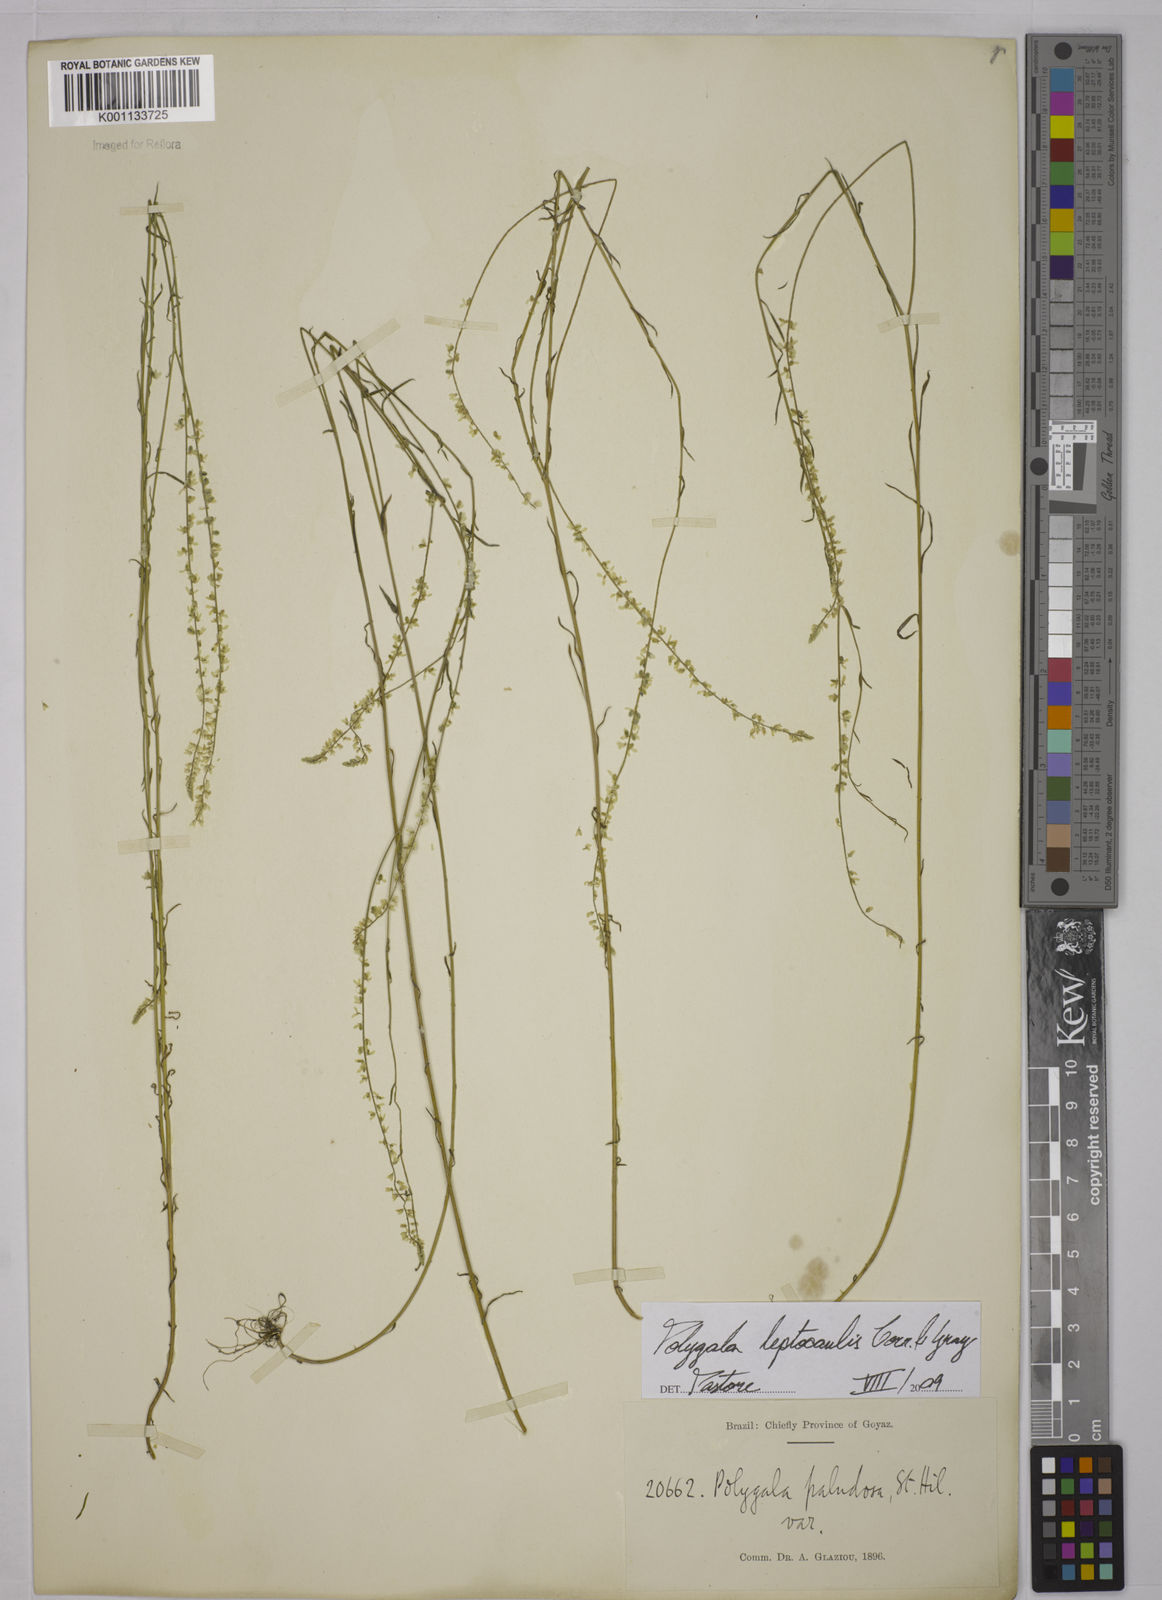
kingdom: Plantae
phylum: Tracheophyta
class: Magnoliopsida
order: Fabales
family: Polygalaceae
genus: Polygala
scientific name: Polygala tenella
